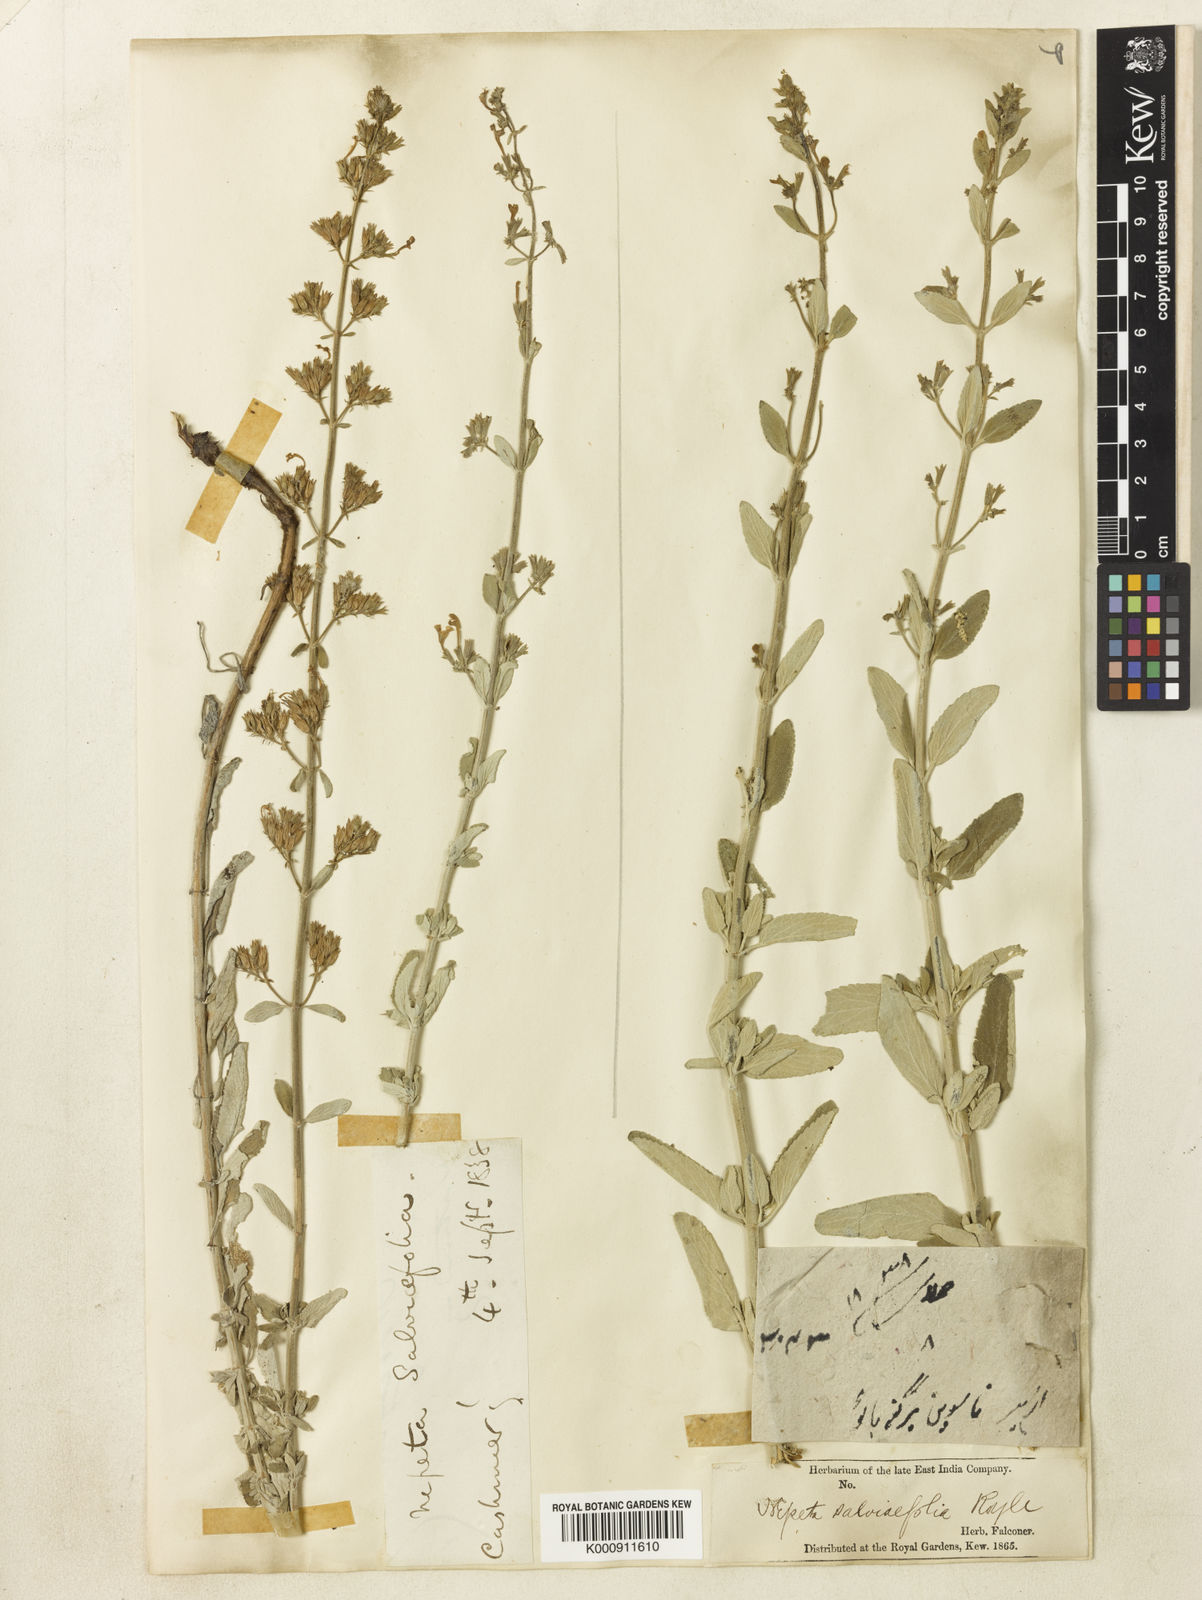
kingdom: Plantae
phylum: Tracheophyta
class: Magnoliopsida
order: Lamiales
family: Lamiaceae
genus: Nepeta
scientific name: Nepeta
